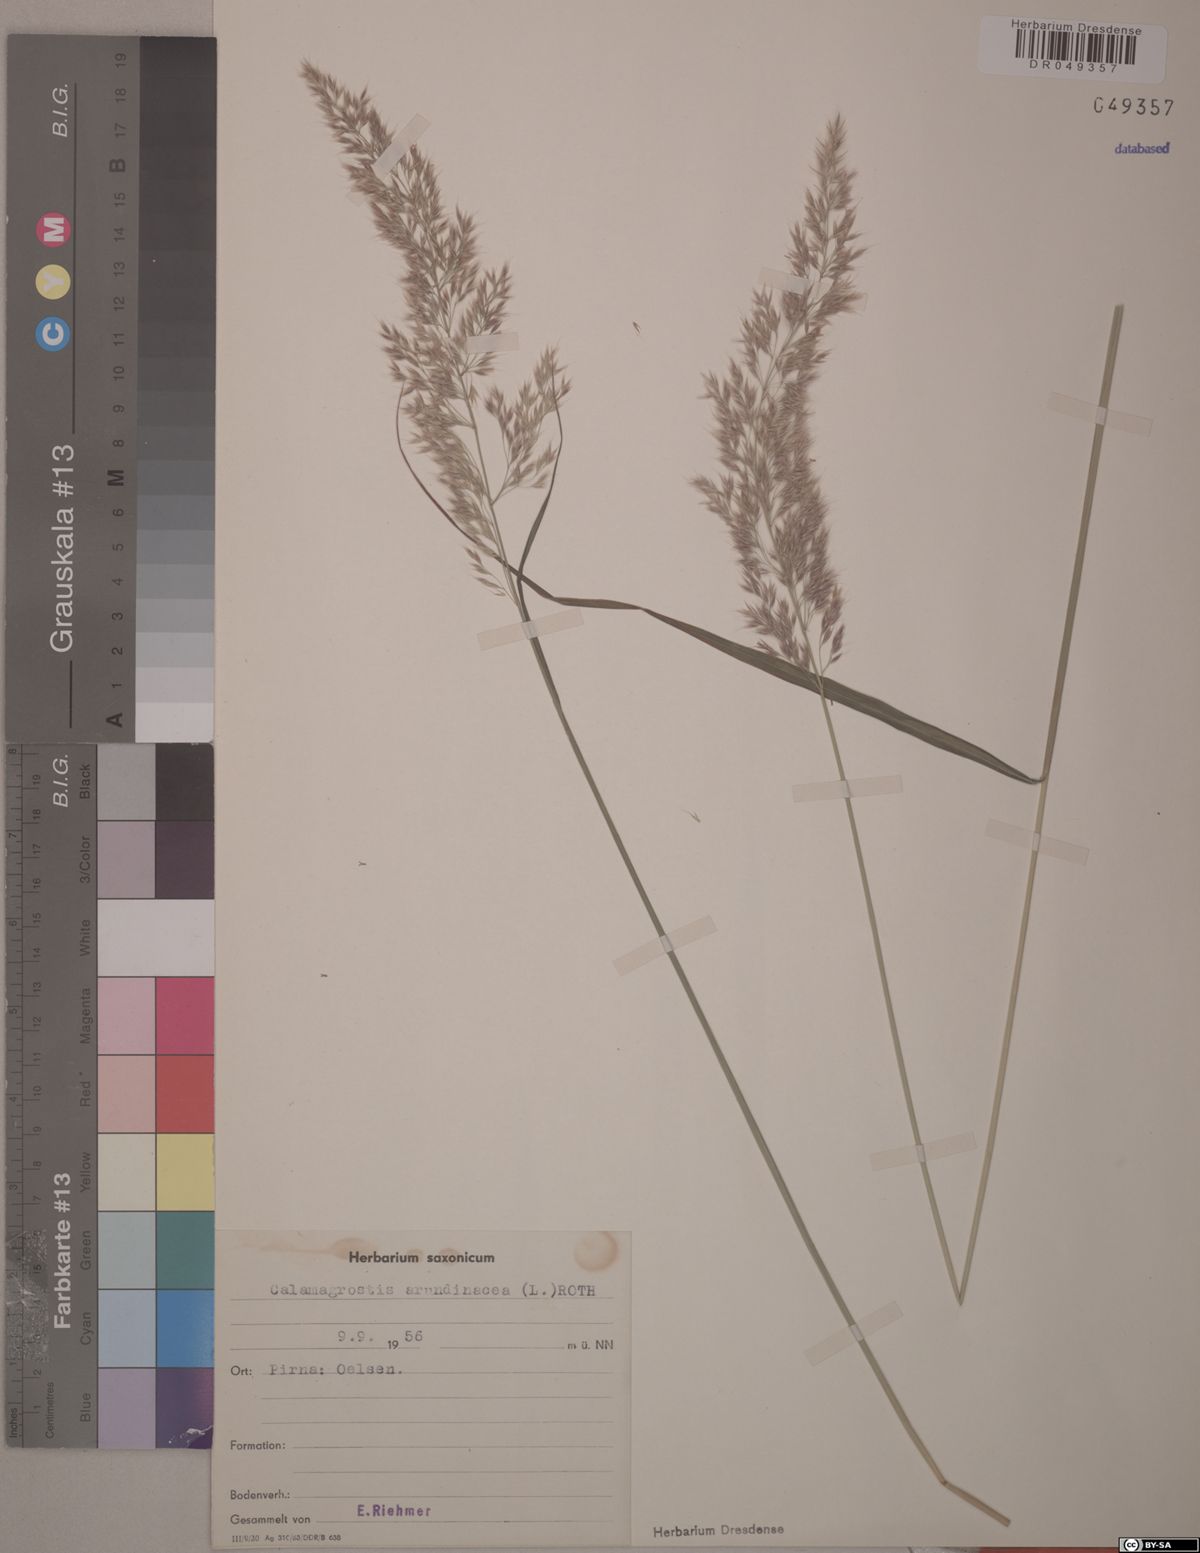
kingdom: Plantae
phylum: Tracheophyta
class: Liliopsida
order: Poales
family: Poaceae
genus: Calamagrostis
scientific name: Calamagrostis arundinacea
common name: Metskastik
